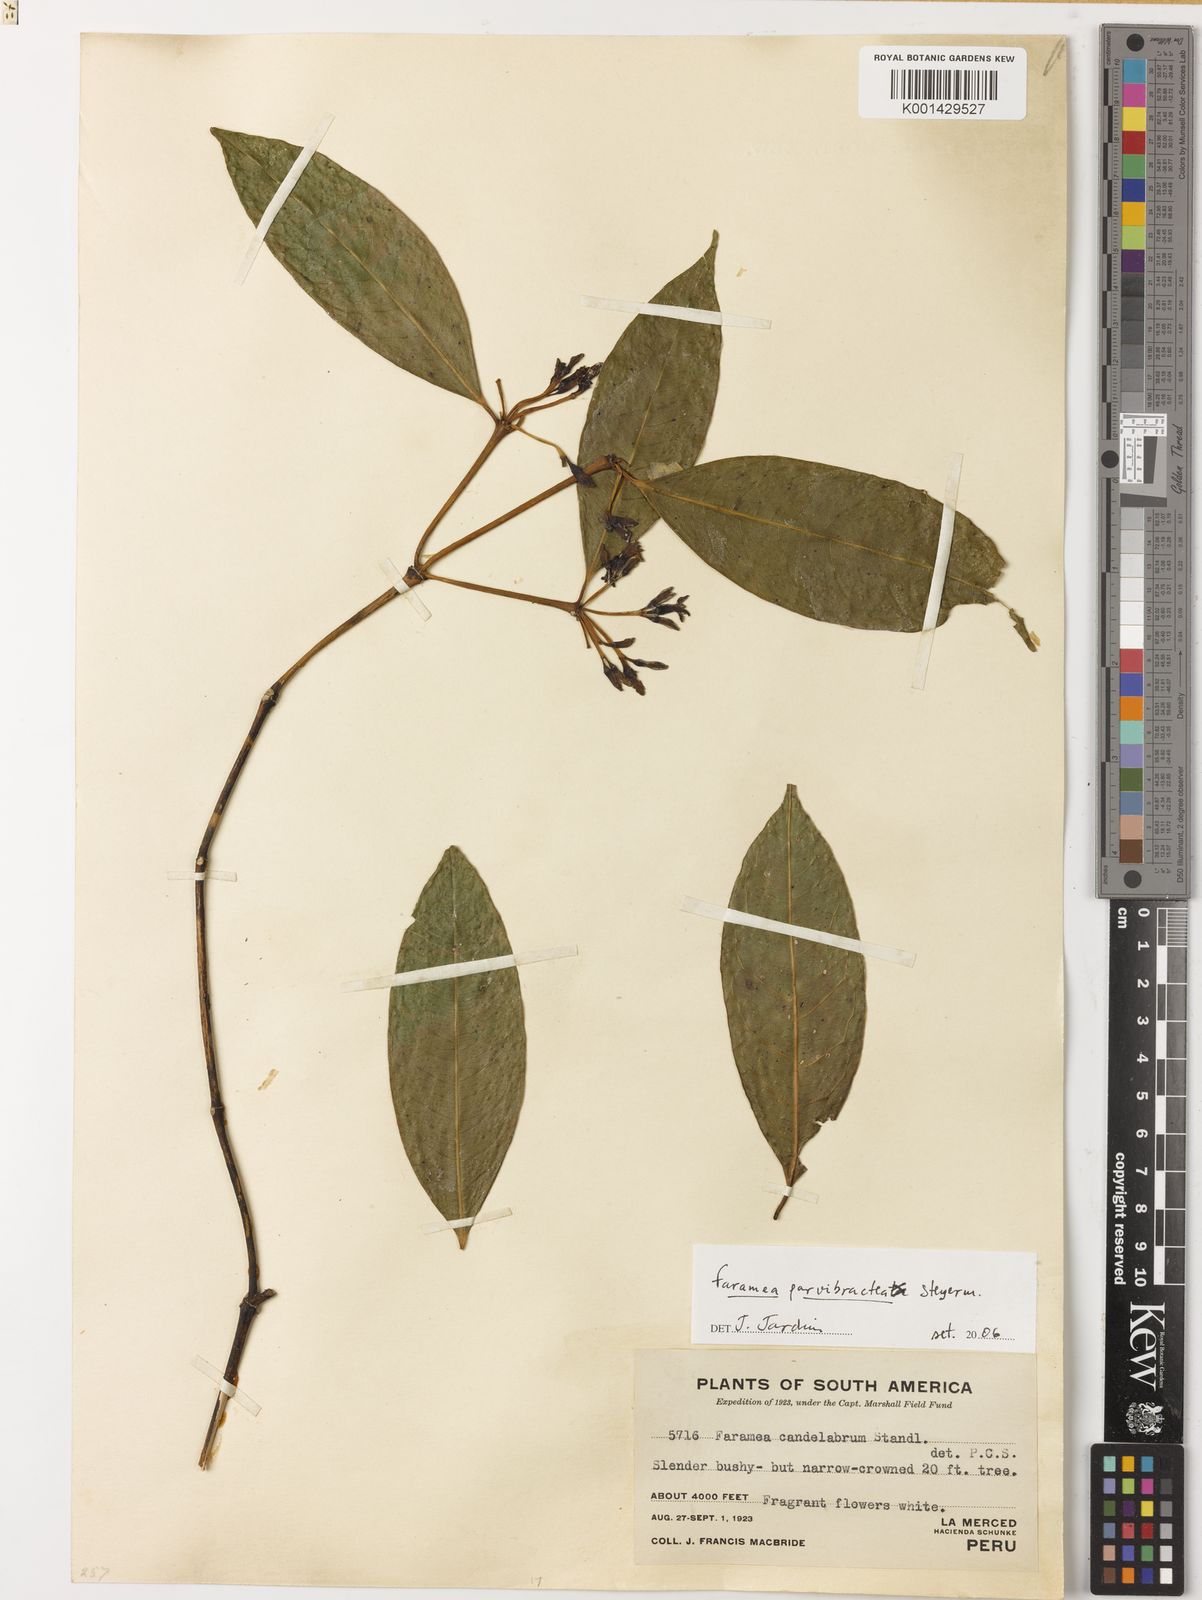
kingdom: Plantae
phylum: Tracheophyta
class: Magnoliopsida
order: Gentianales
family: Rubiaceae
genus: Faramea
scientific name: Faramea parvibractea
